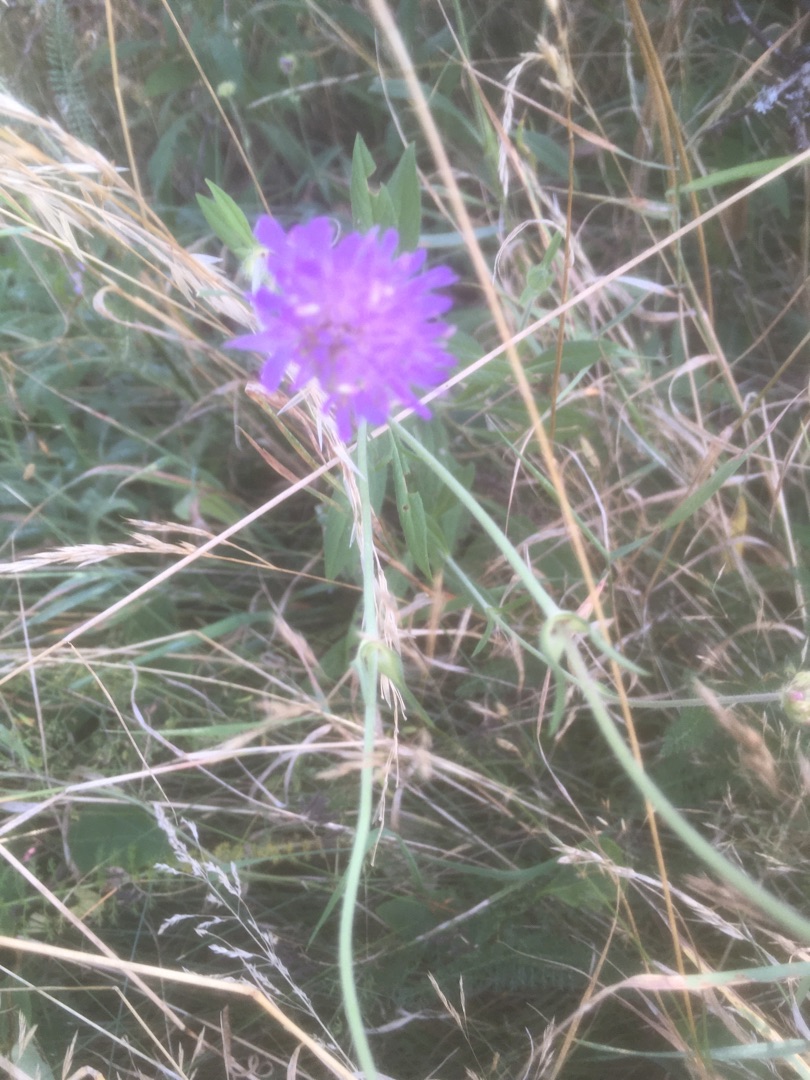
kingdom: Plantae
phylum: Tracheophyta
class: Magnoliopsida
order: Dipsacales
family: Caprifoliaceae
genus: Knautia
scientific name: Knautia arvensis
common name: Blåhat
